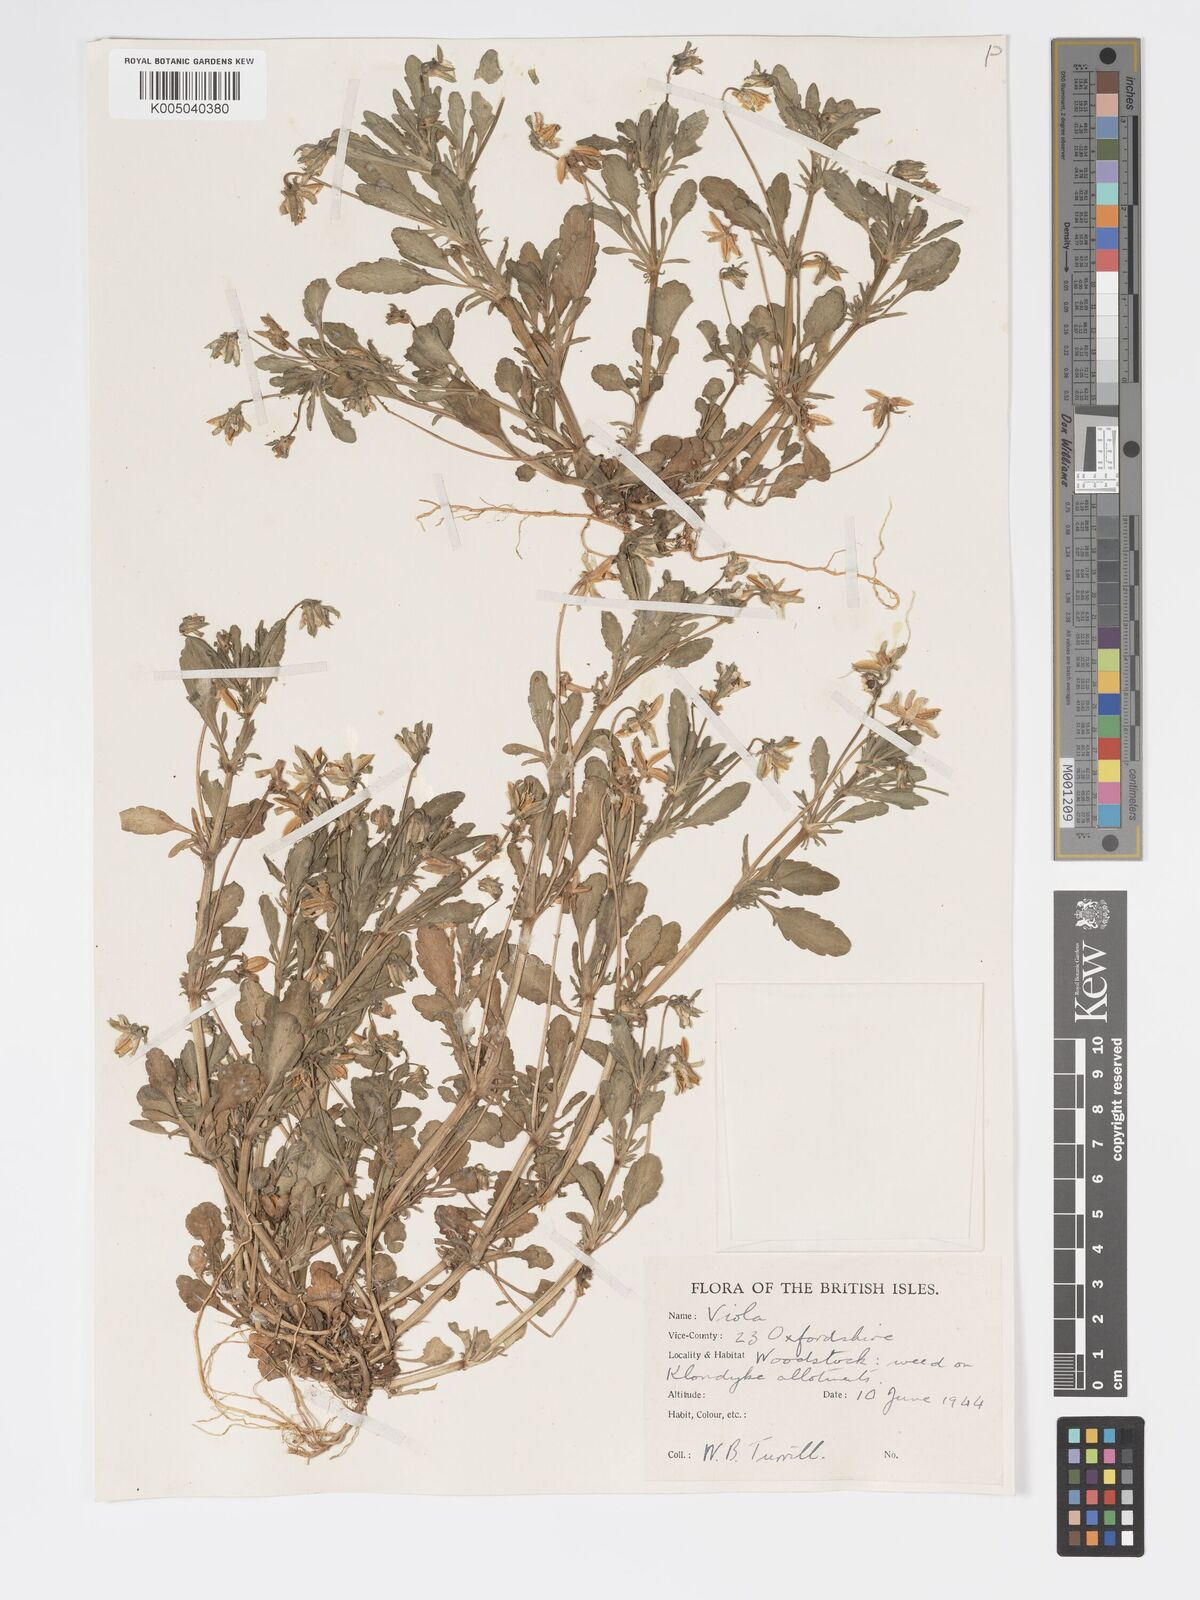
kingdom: Plantae
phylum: Tracheophyta
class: Magnoliopsida
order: Malpighiales
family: Violaceae
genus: Viola
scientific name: Viola arvensis
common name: Field pansy
